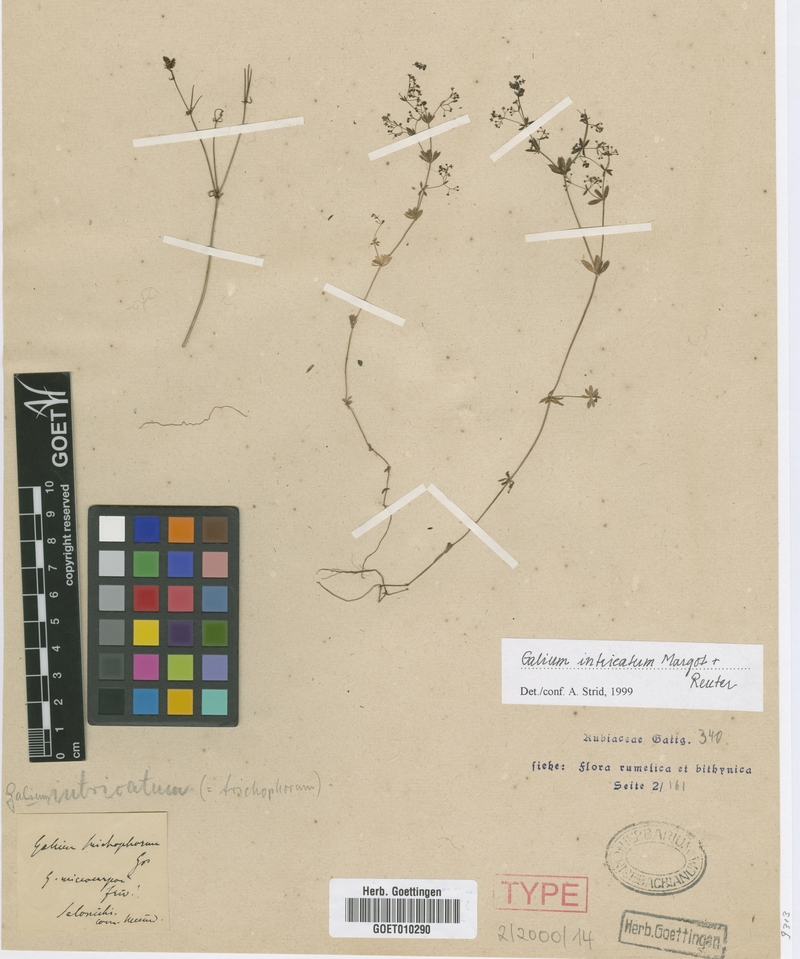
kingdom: Plantae
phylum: Tracheophyta
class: Magnoliopsida
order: Gentianales
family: Rubiaceae
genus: Galium
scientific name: Galium intricatum
